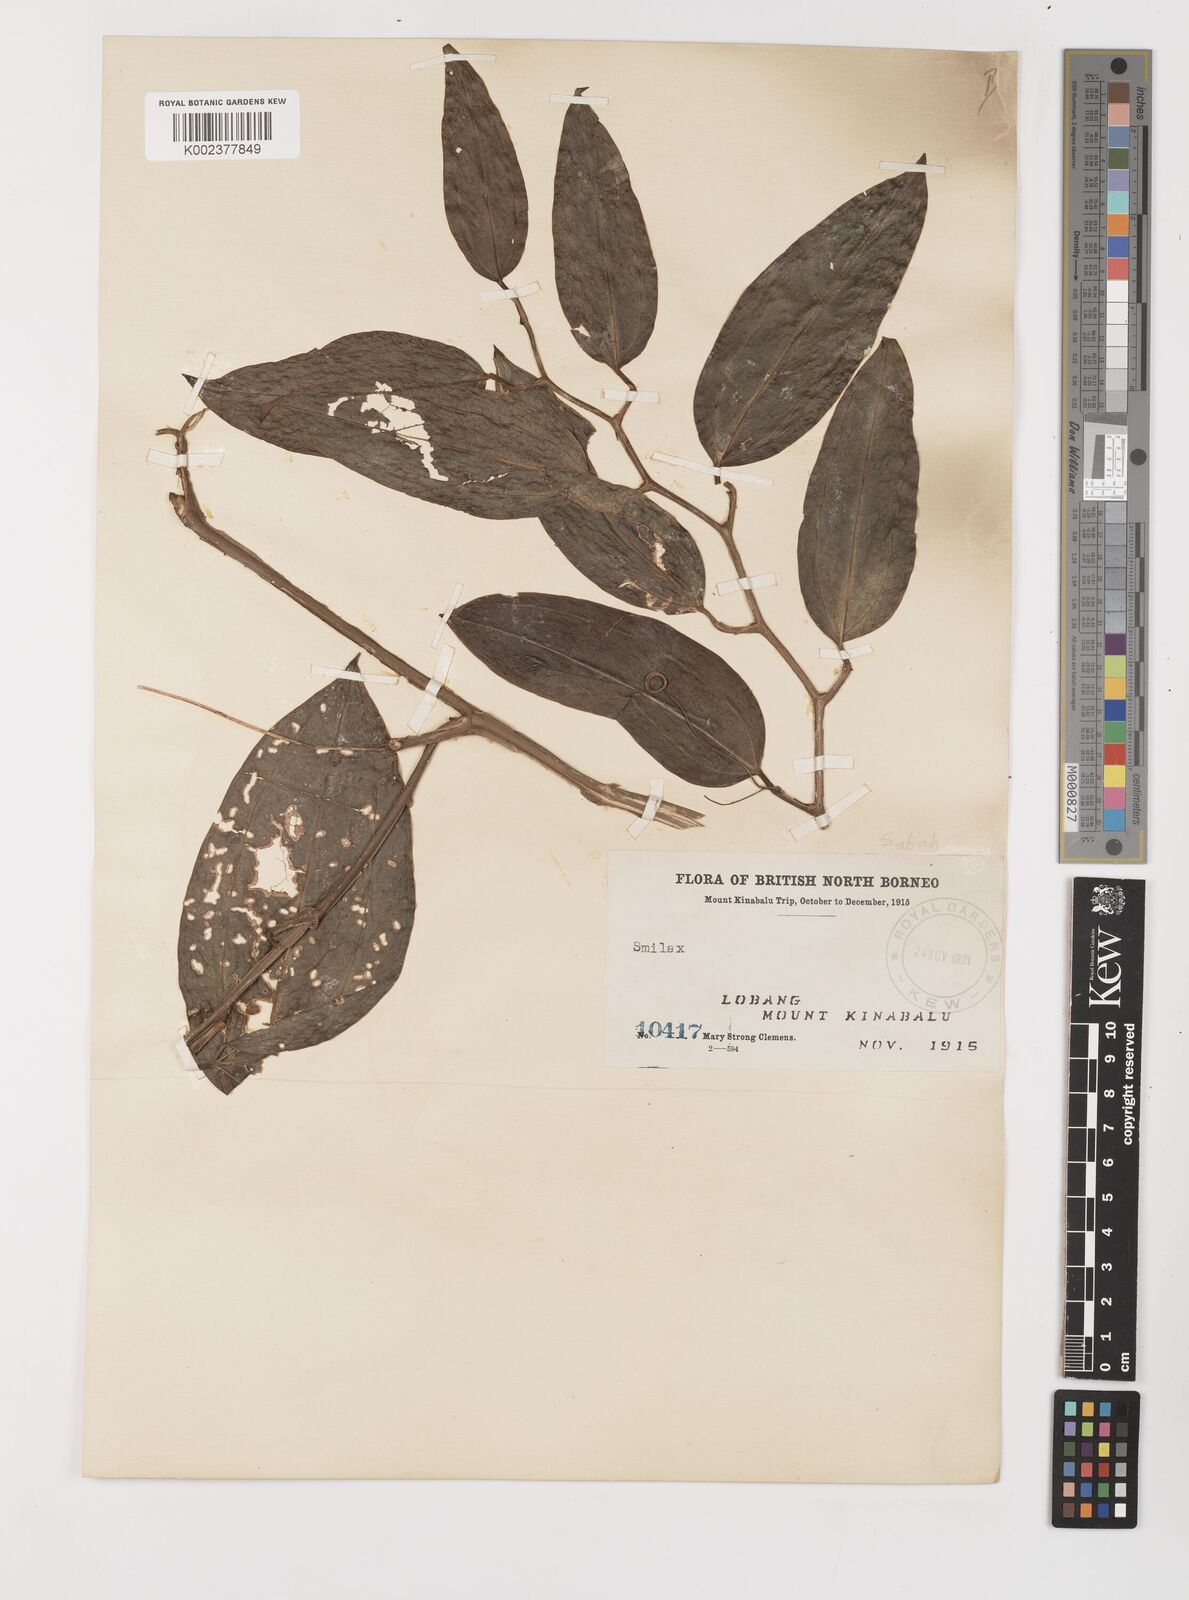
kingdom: Plantae
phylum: Tracheophyta
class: Liliopsida
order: Liliales
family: Smilacaceae
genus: Smilax
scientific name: Smilax
